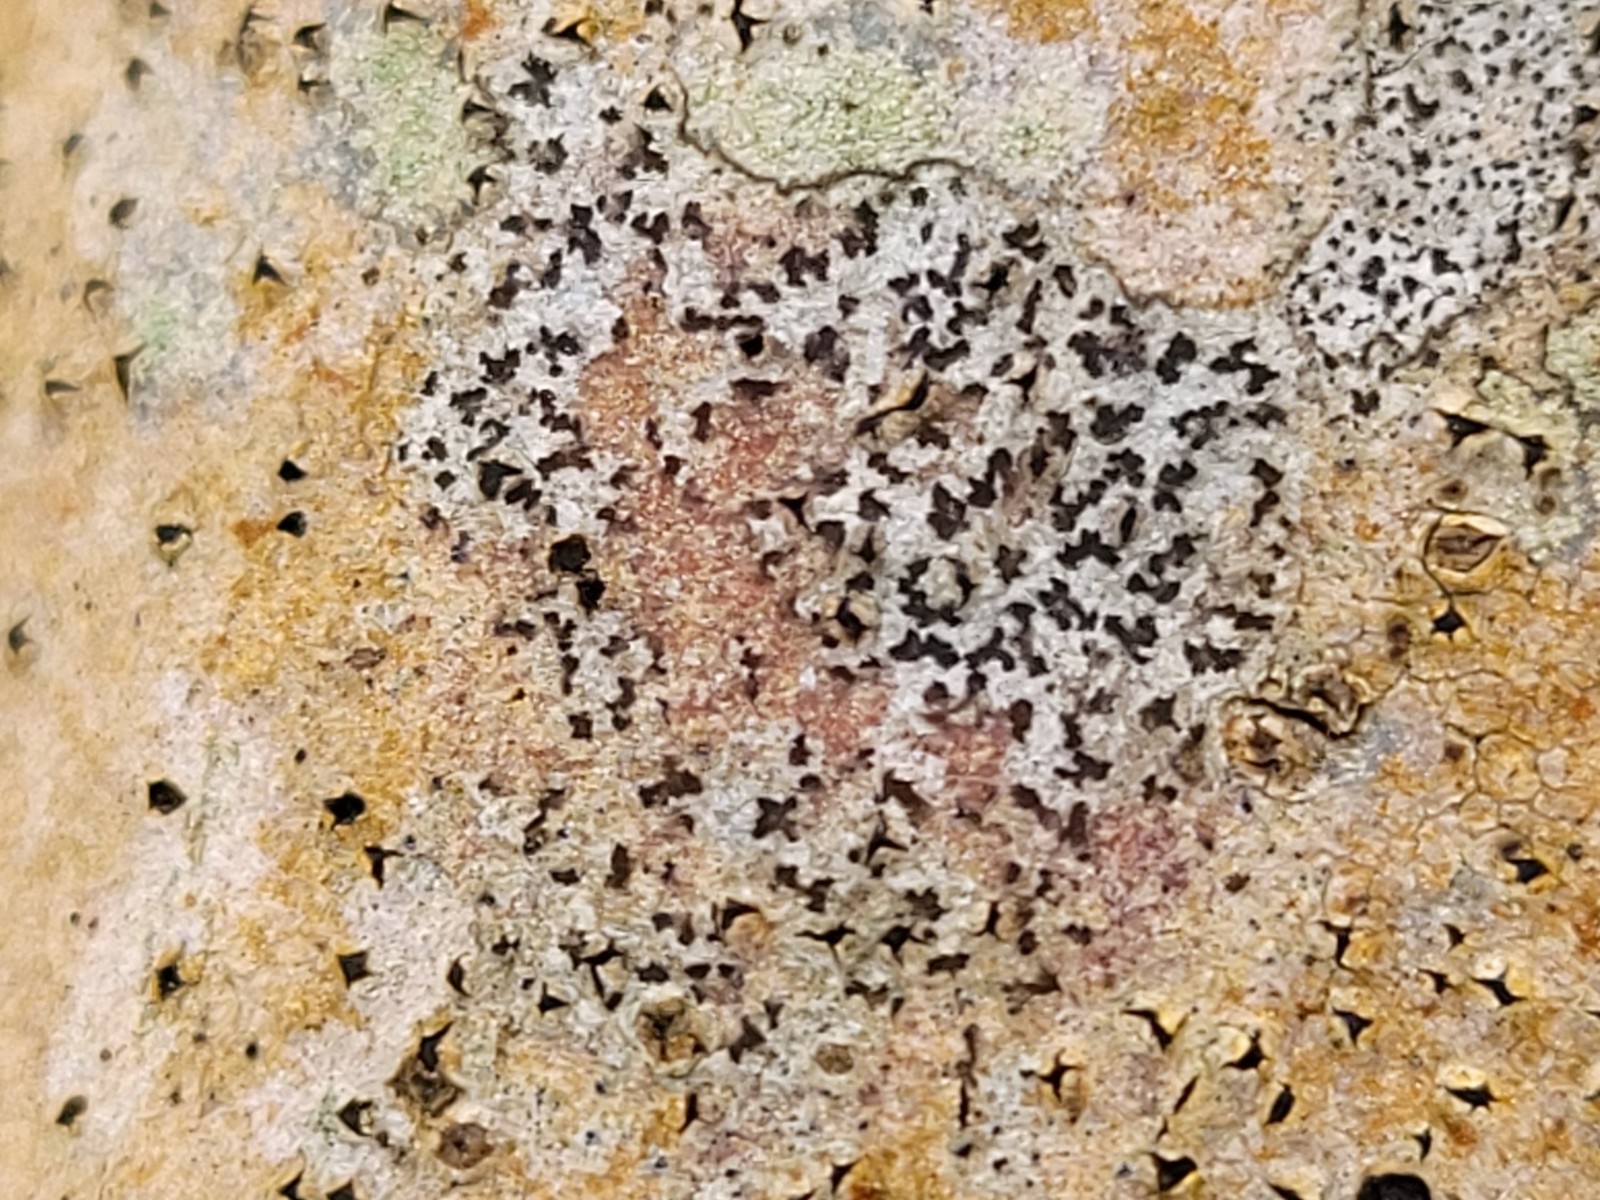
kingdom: Fungi
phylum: Ascomycota
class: Arthoniomycetes
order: Arthoniales
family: Arthoniaceae
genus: Arthonia
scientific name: Arthonia radiata
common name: stjerne-pletlav
